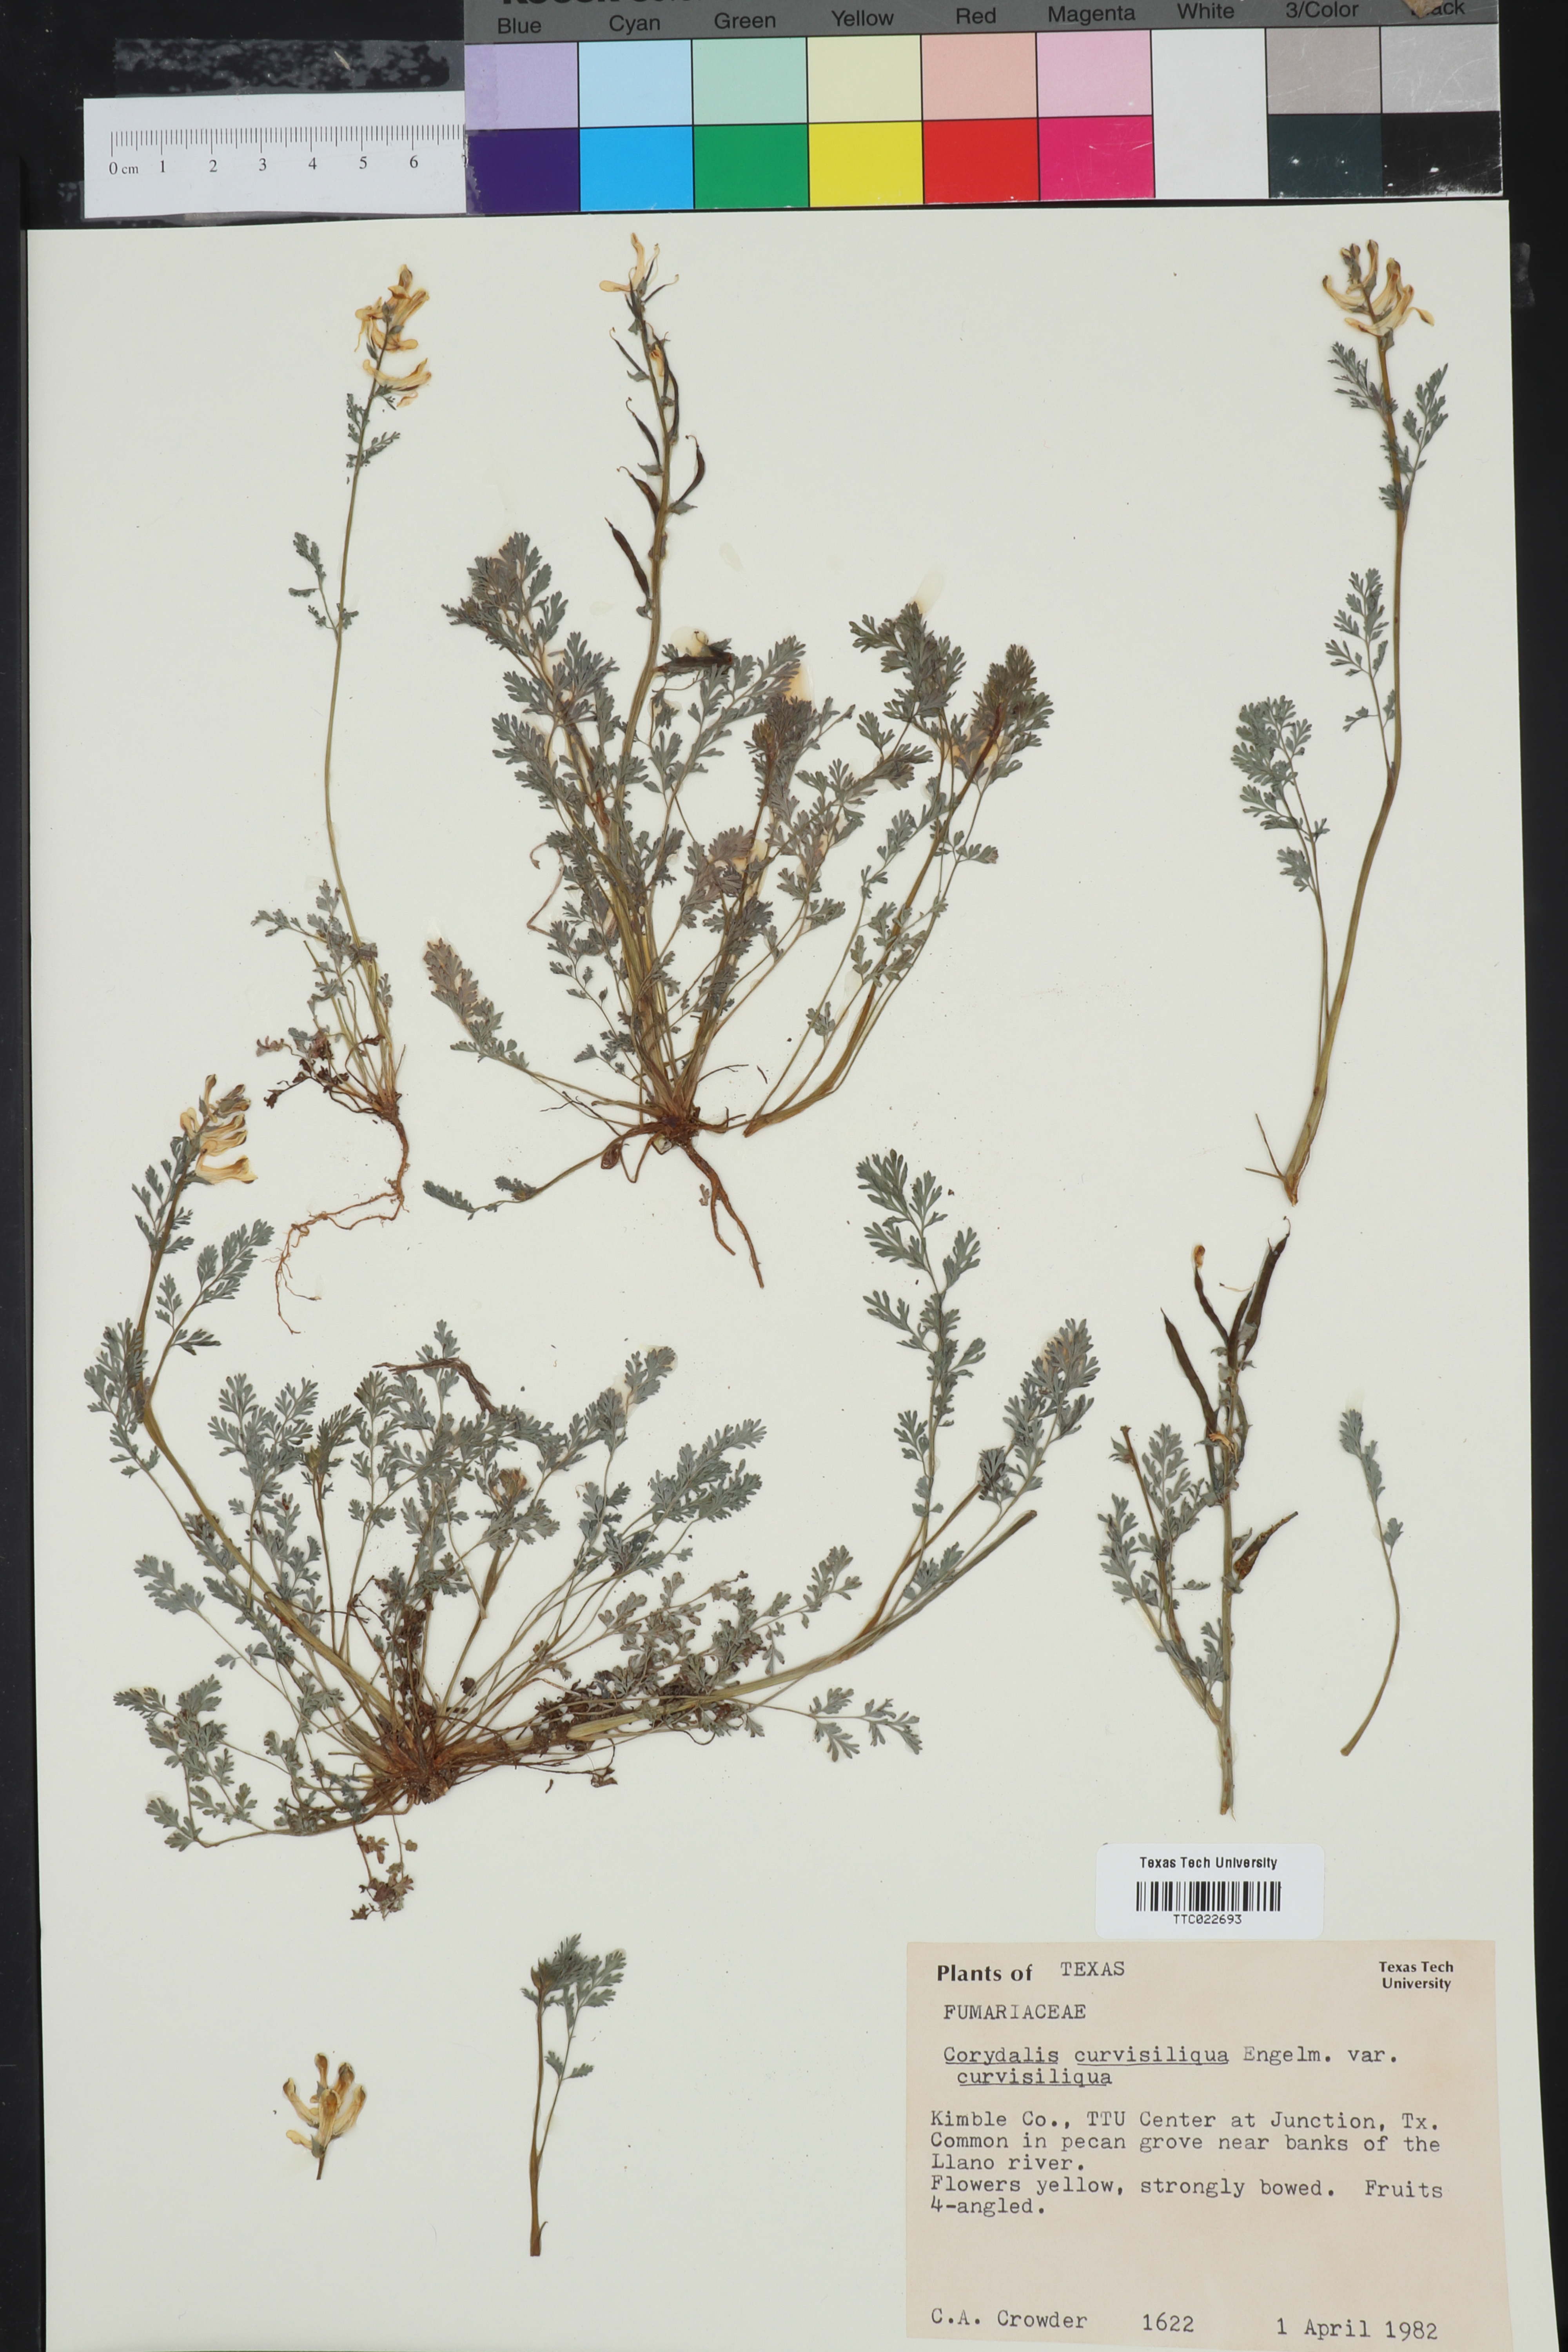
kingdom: Plantae
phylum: Tracheophyta
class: Magnoliopsida
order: Ranunculales
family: Papaveraceae
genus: Corydalis
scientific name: Corydalis curvisiliqua
